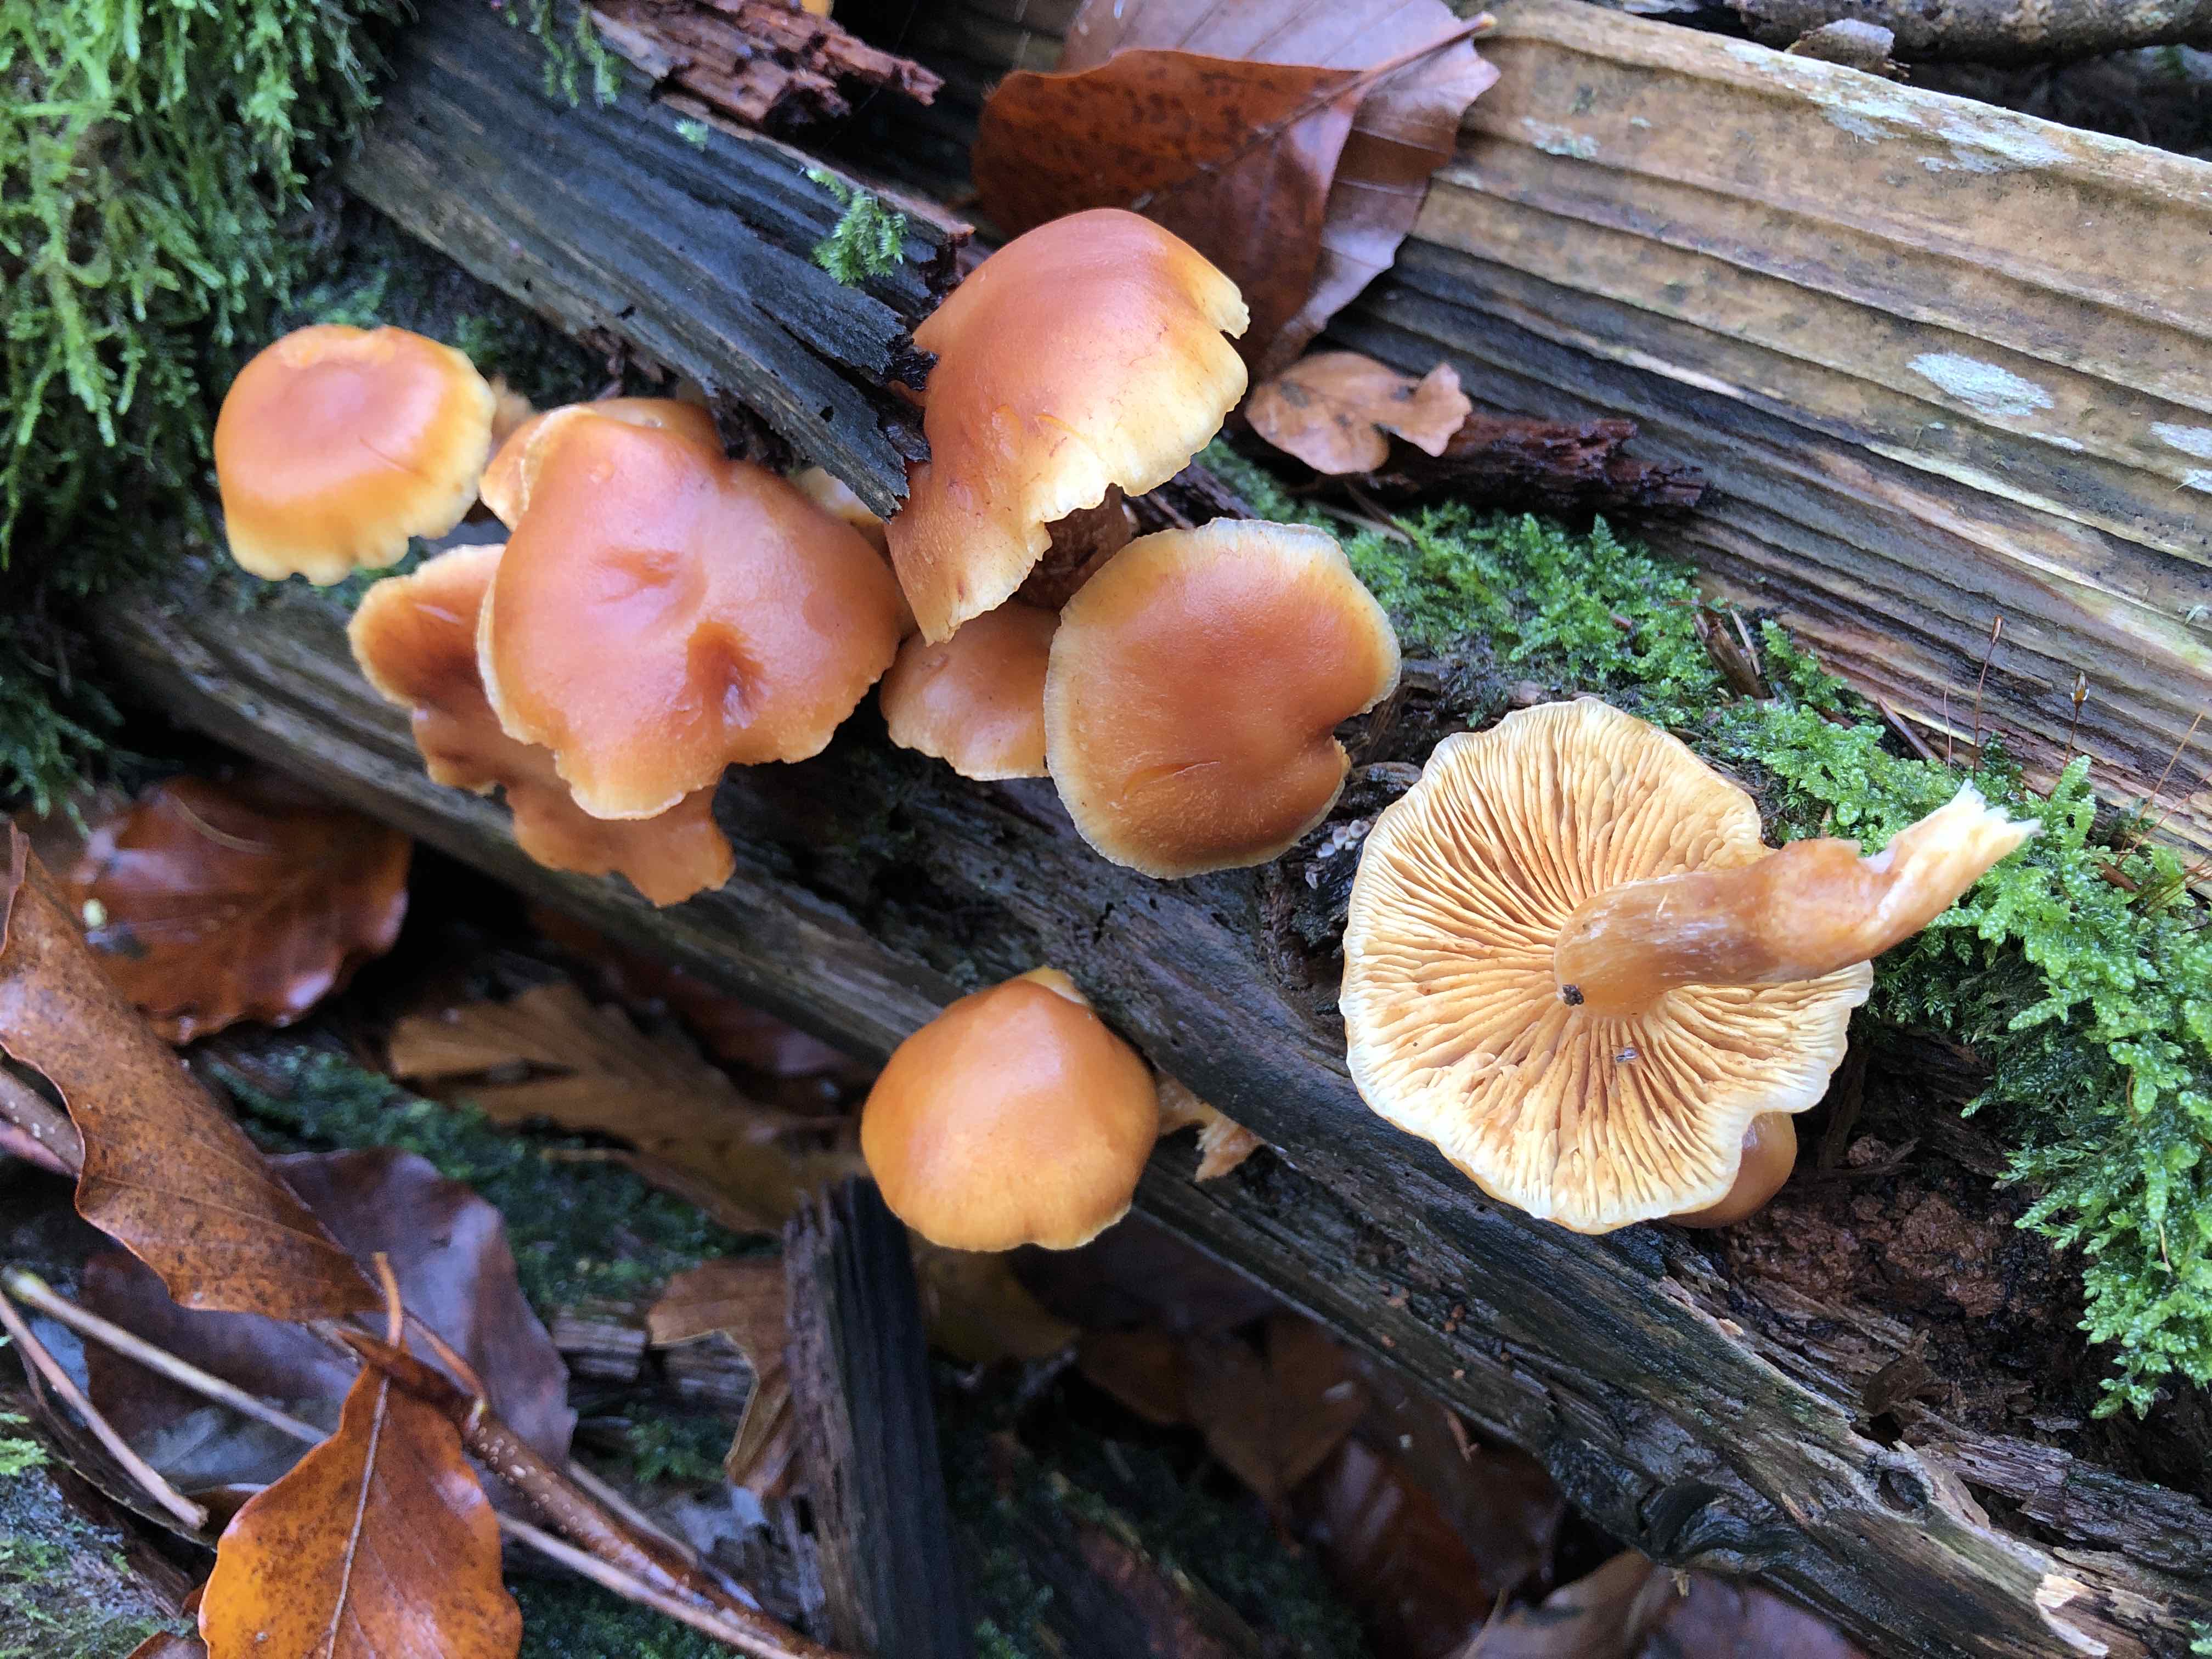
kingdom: Fungi
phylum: Basidiomycota
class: Agaricomycetes
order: Agaricales
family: Hymenogastraceae
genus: Gymnopilus
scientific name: Gymnopilus penetrans
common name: plettet flammehat
